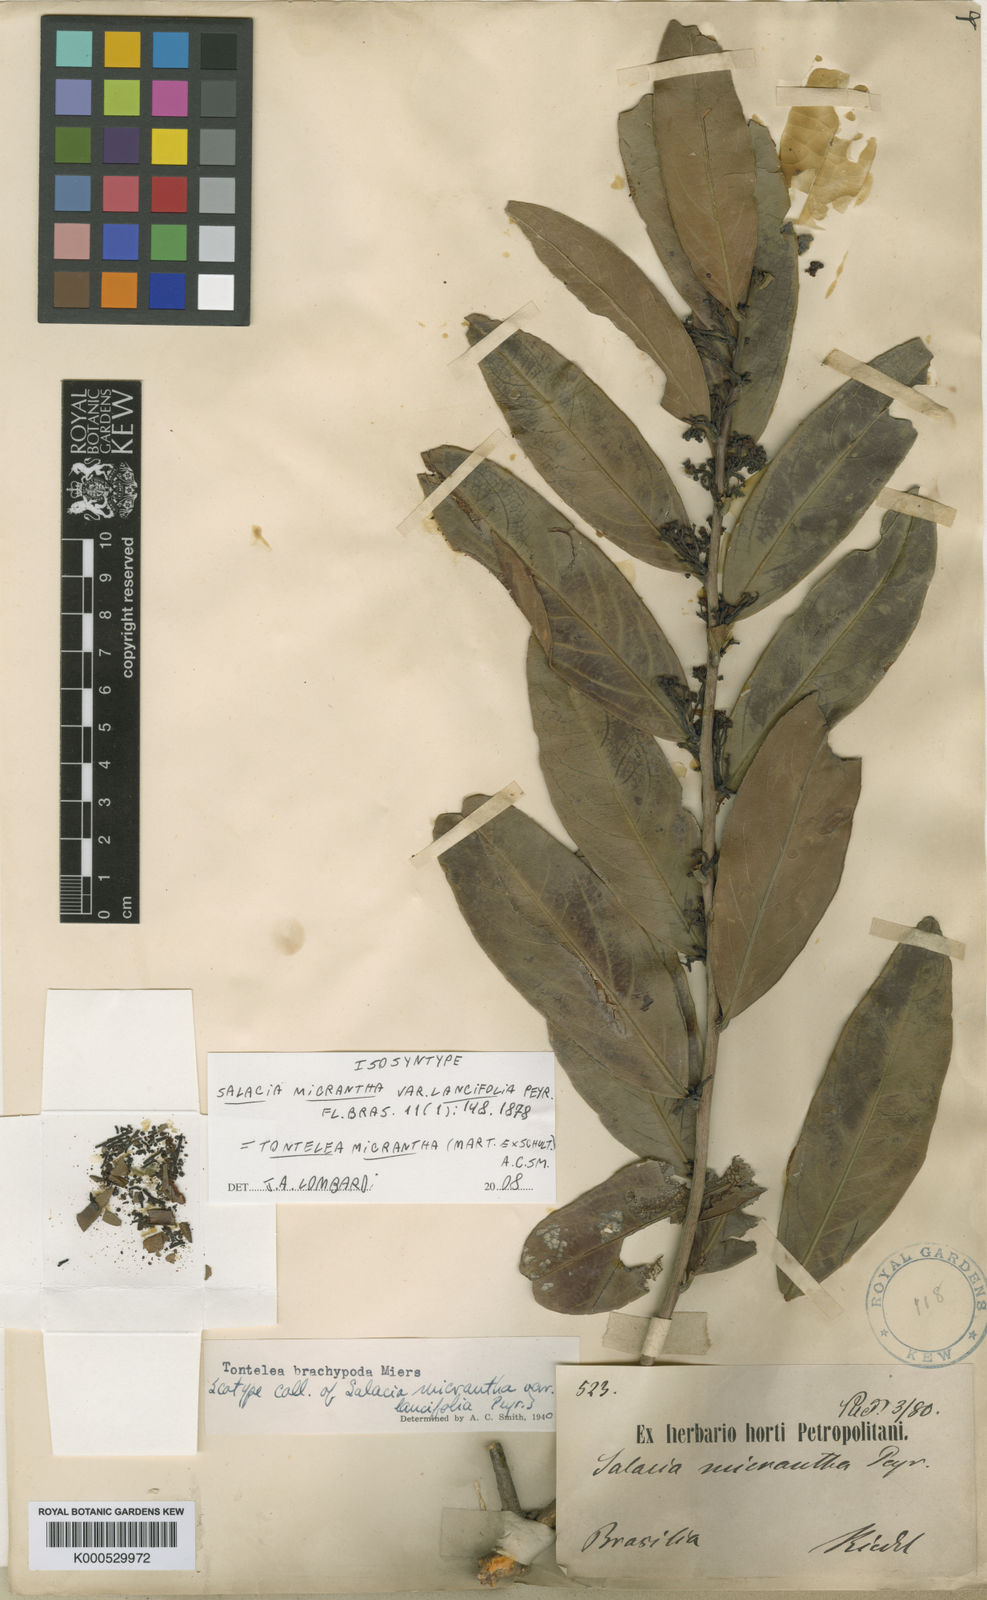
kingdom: Plantae
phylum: Tracheophyta
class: Magnoliopsida
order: Celastrales
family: Celastraceae
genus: Tontelea
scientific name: Tontelea micrantha
